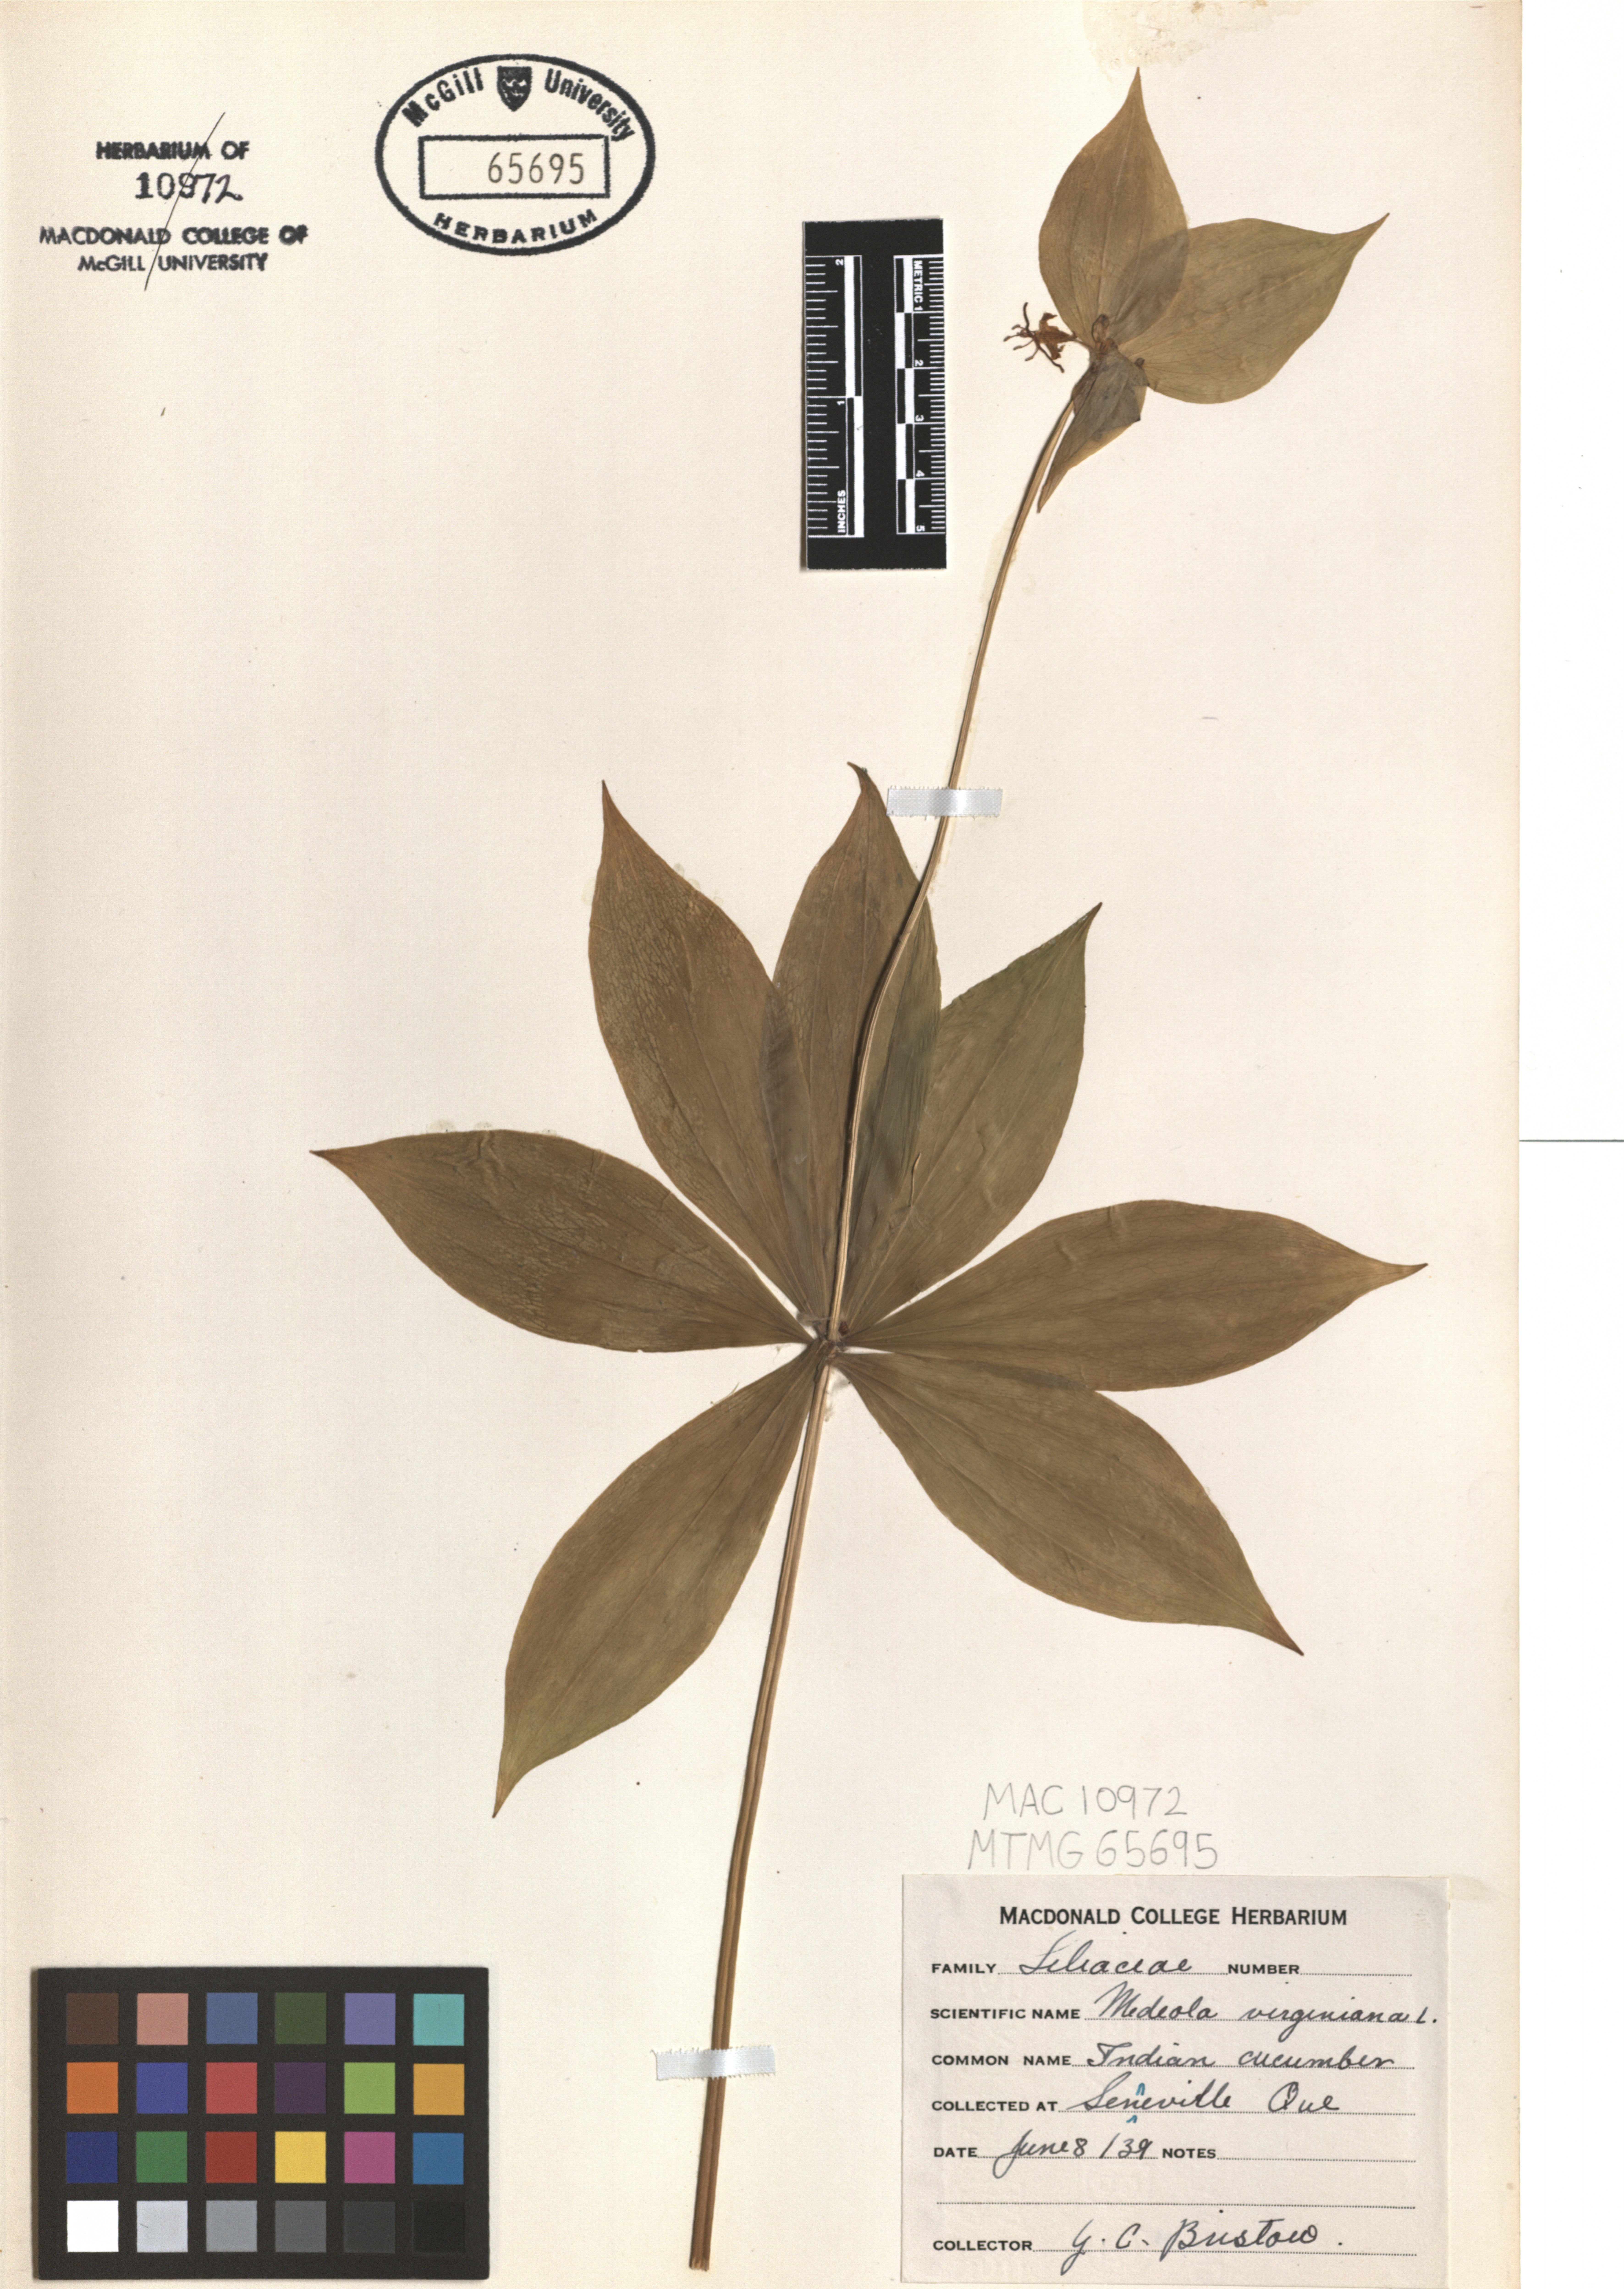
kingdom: Plantae
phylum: Tracheophyta
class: Liliopsida
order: Liliales
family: Liliaceae
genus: Medeola
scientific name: Medeola virginiana
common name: Indian cucumber-root
